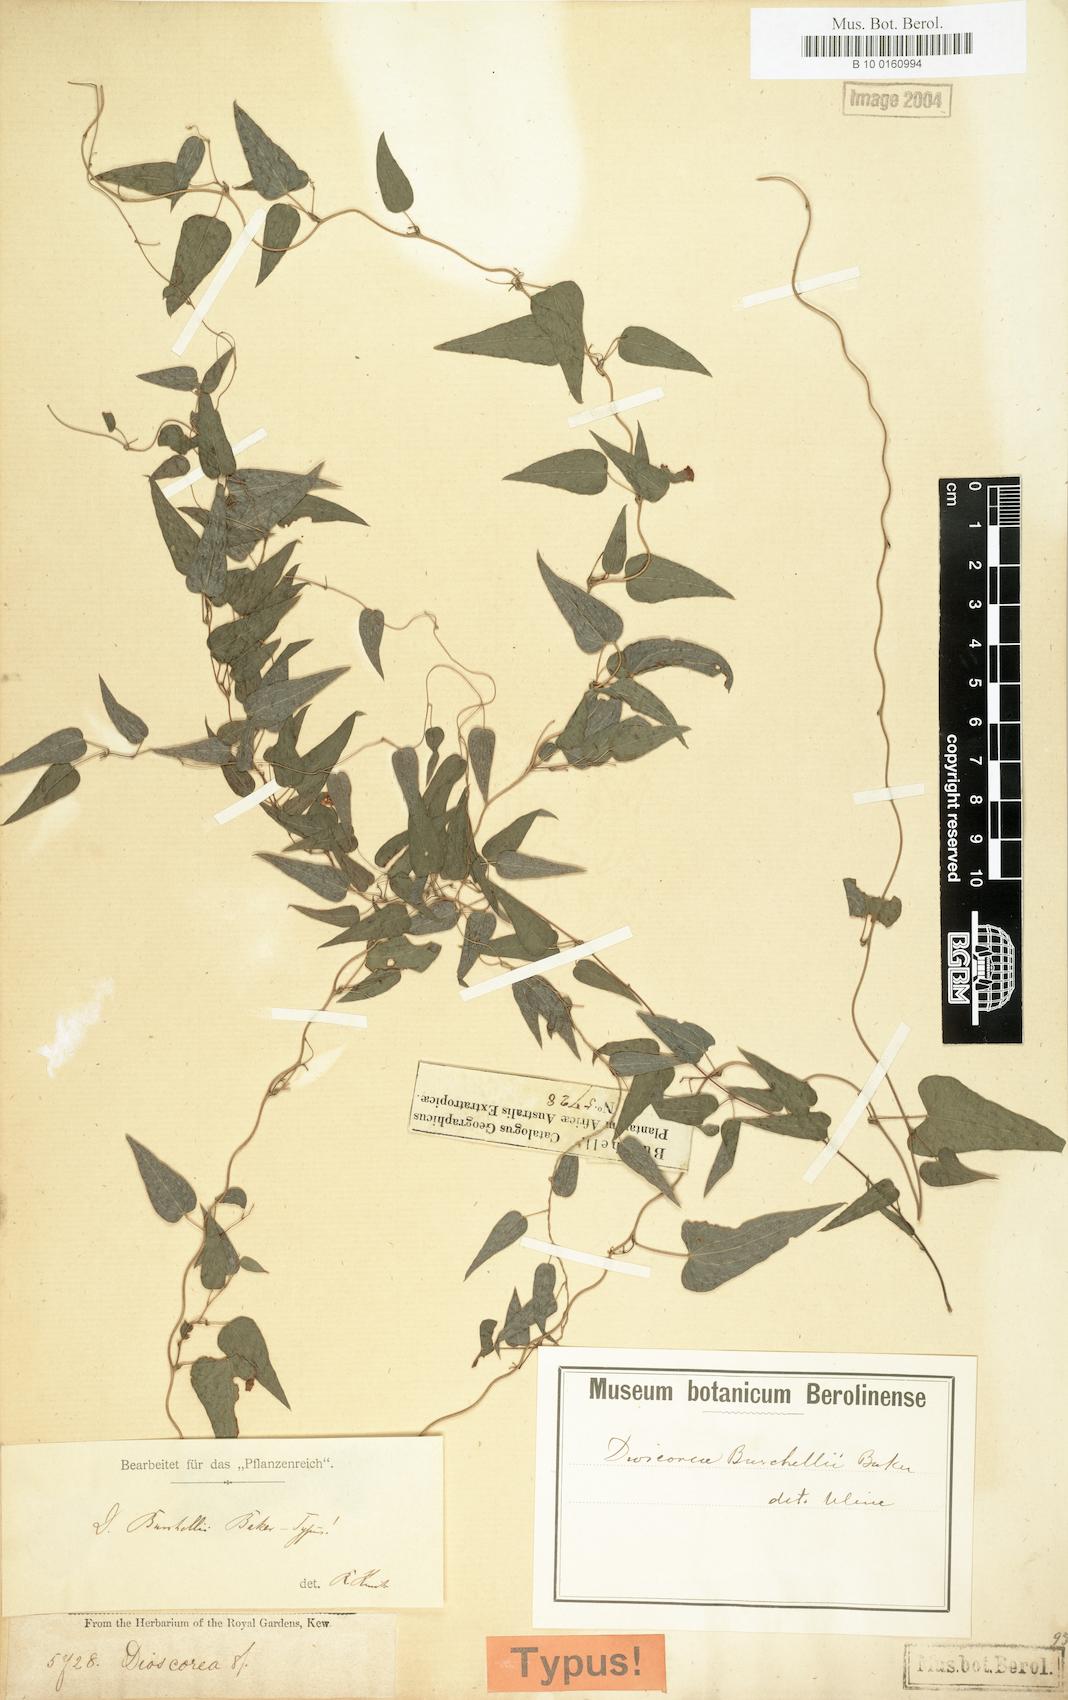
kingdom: Plantae
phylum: Tracheophyta
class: Liliopsida
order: Dioscoreales
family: Dioscoreaceae
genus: Dioscorea
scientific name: Dioscorea burchellii
